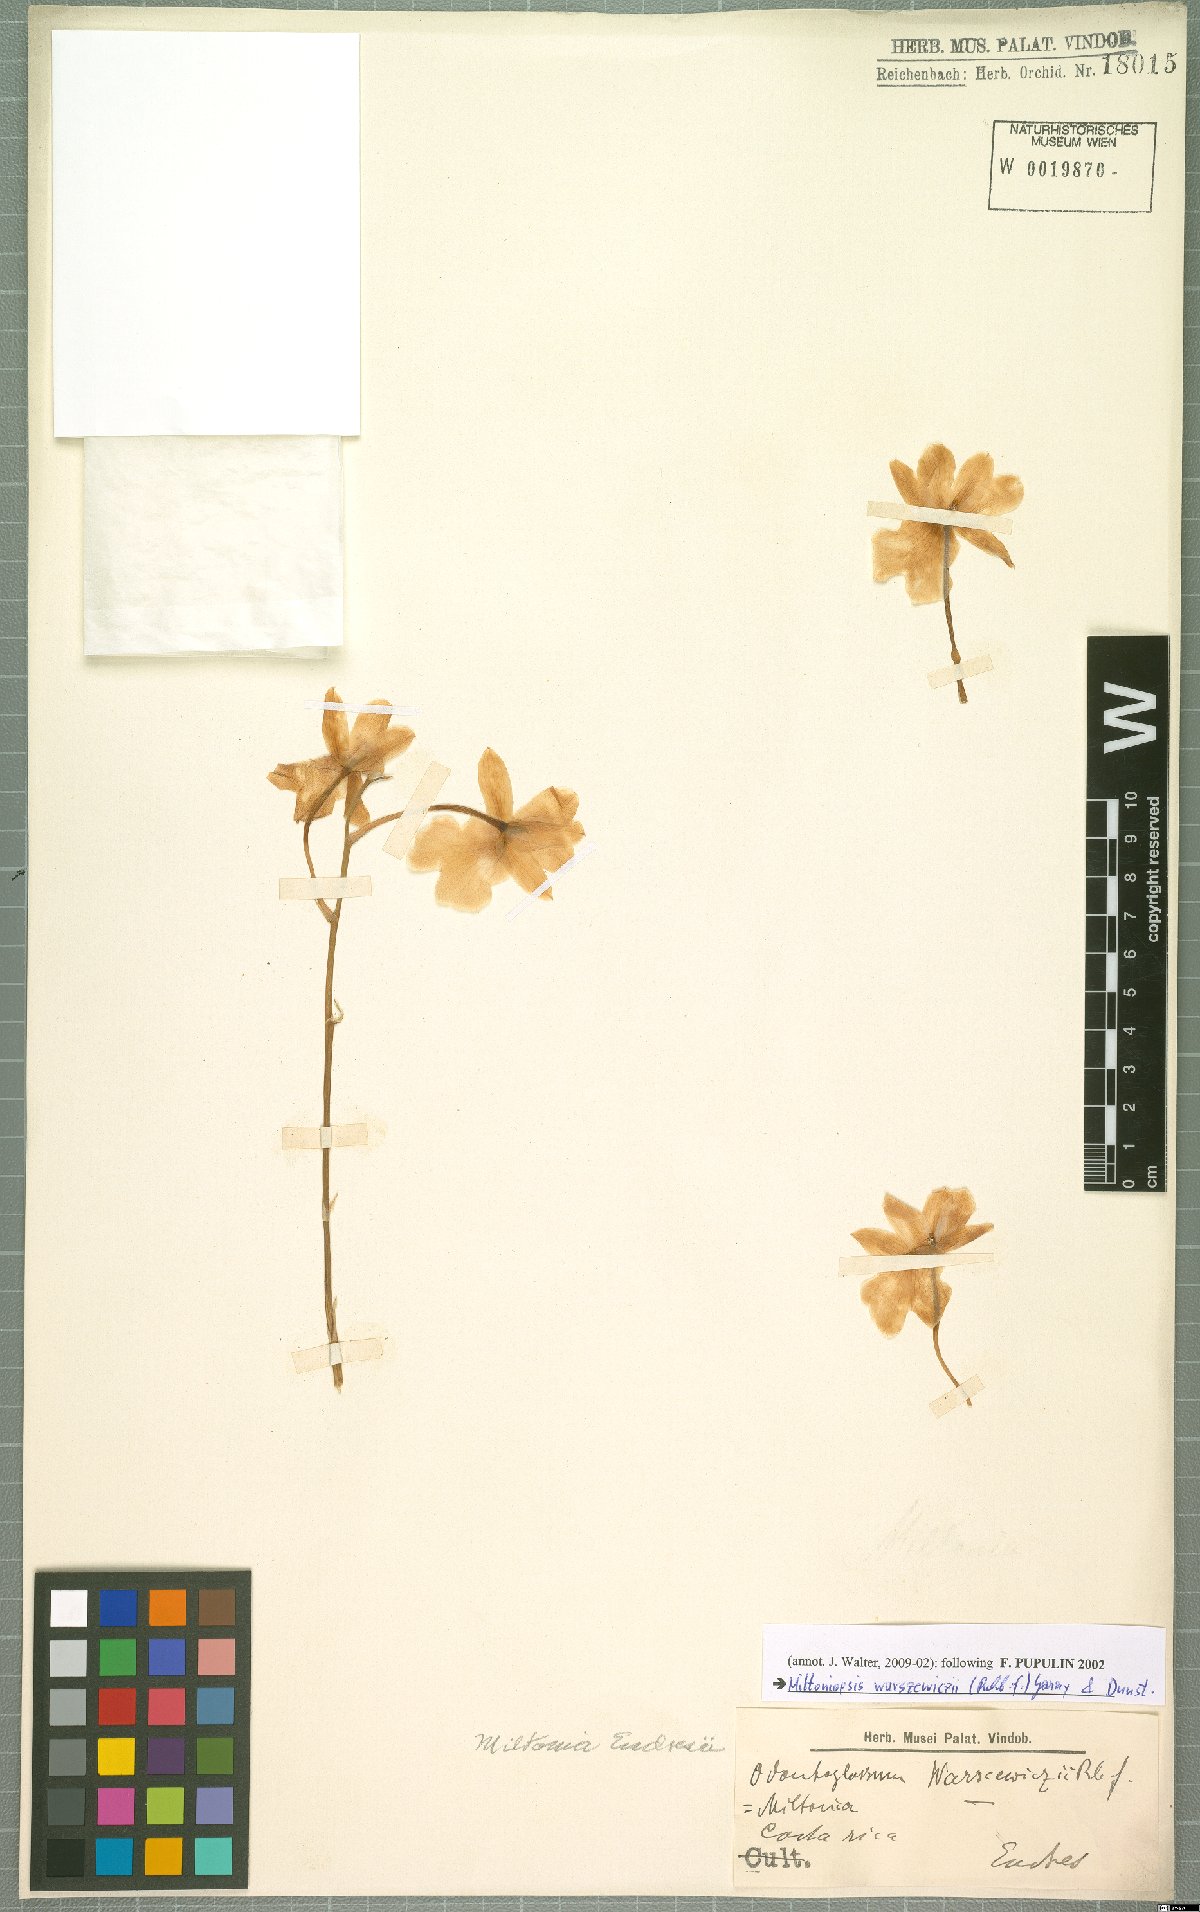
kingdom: Plantae
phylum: Tracheophyta
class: Liliopsida
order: Asparagales
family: Orchidaceae
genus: Miltoniopsis
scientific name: Miltoniopsis warszewiczii
